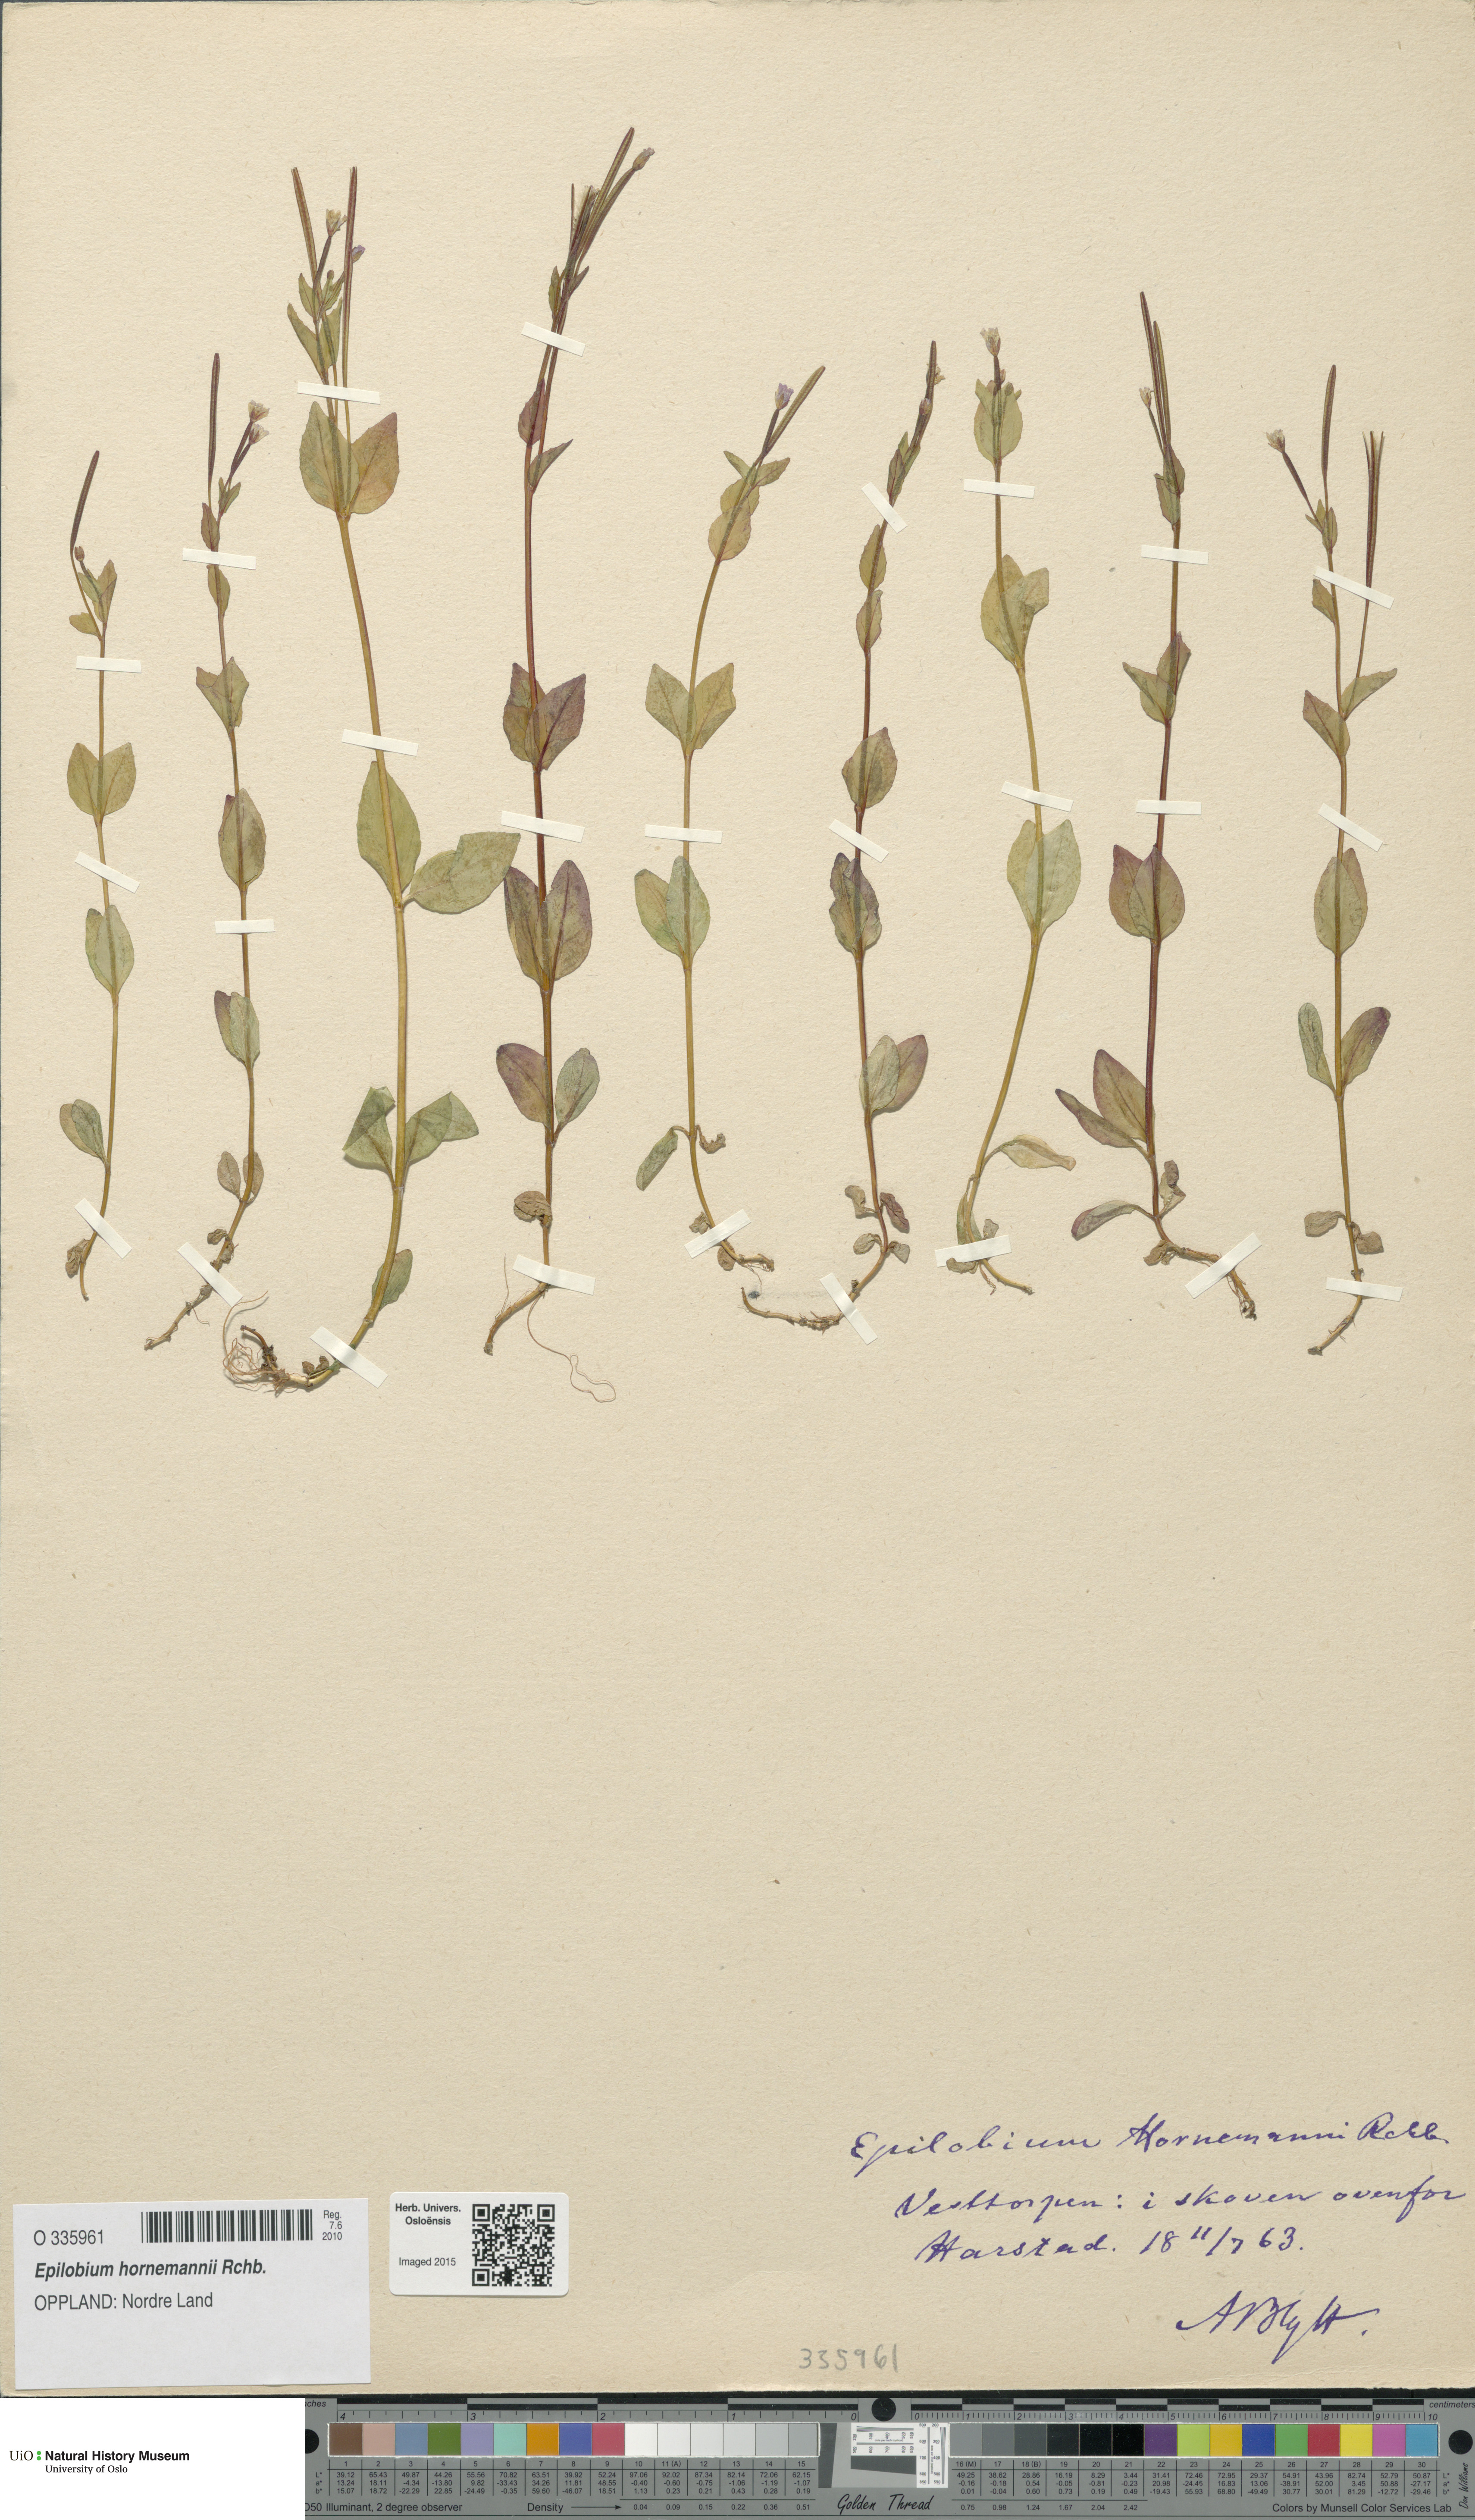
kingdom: Plantae
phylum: Tracheophyta
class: Magnoliopsida
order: Myrtales
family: Onagraceae
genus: Epilobium
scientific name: Epilobium hornemannii
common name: Hornemann's willowherb
